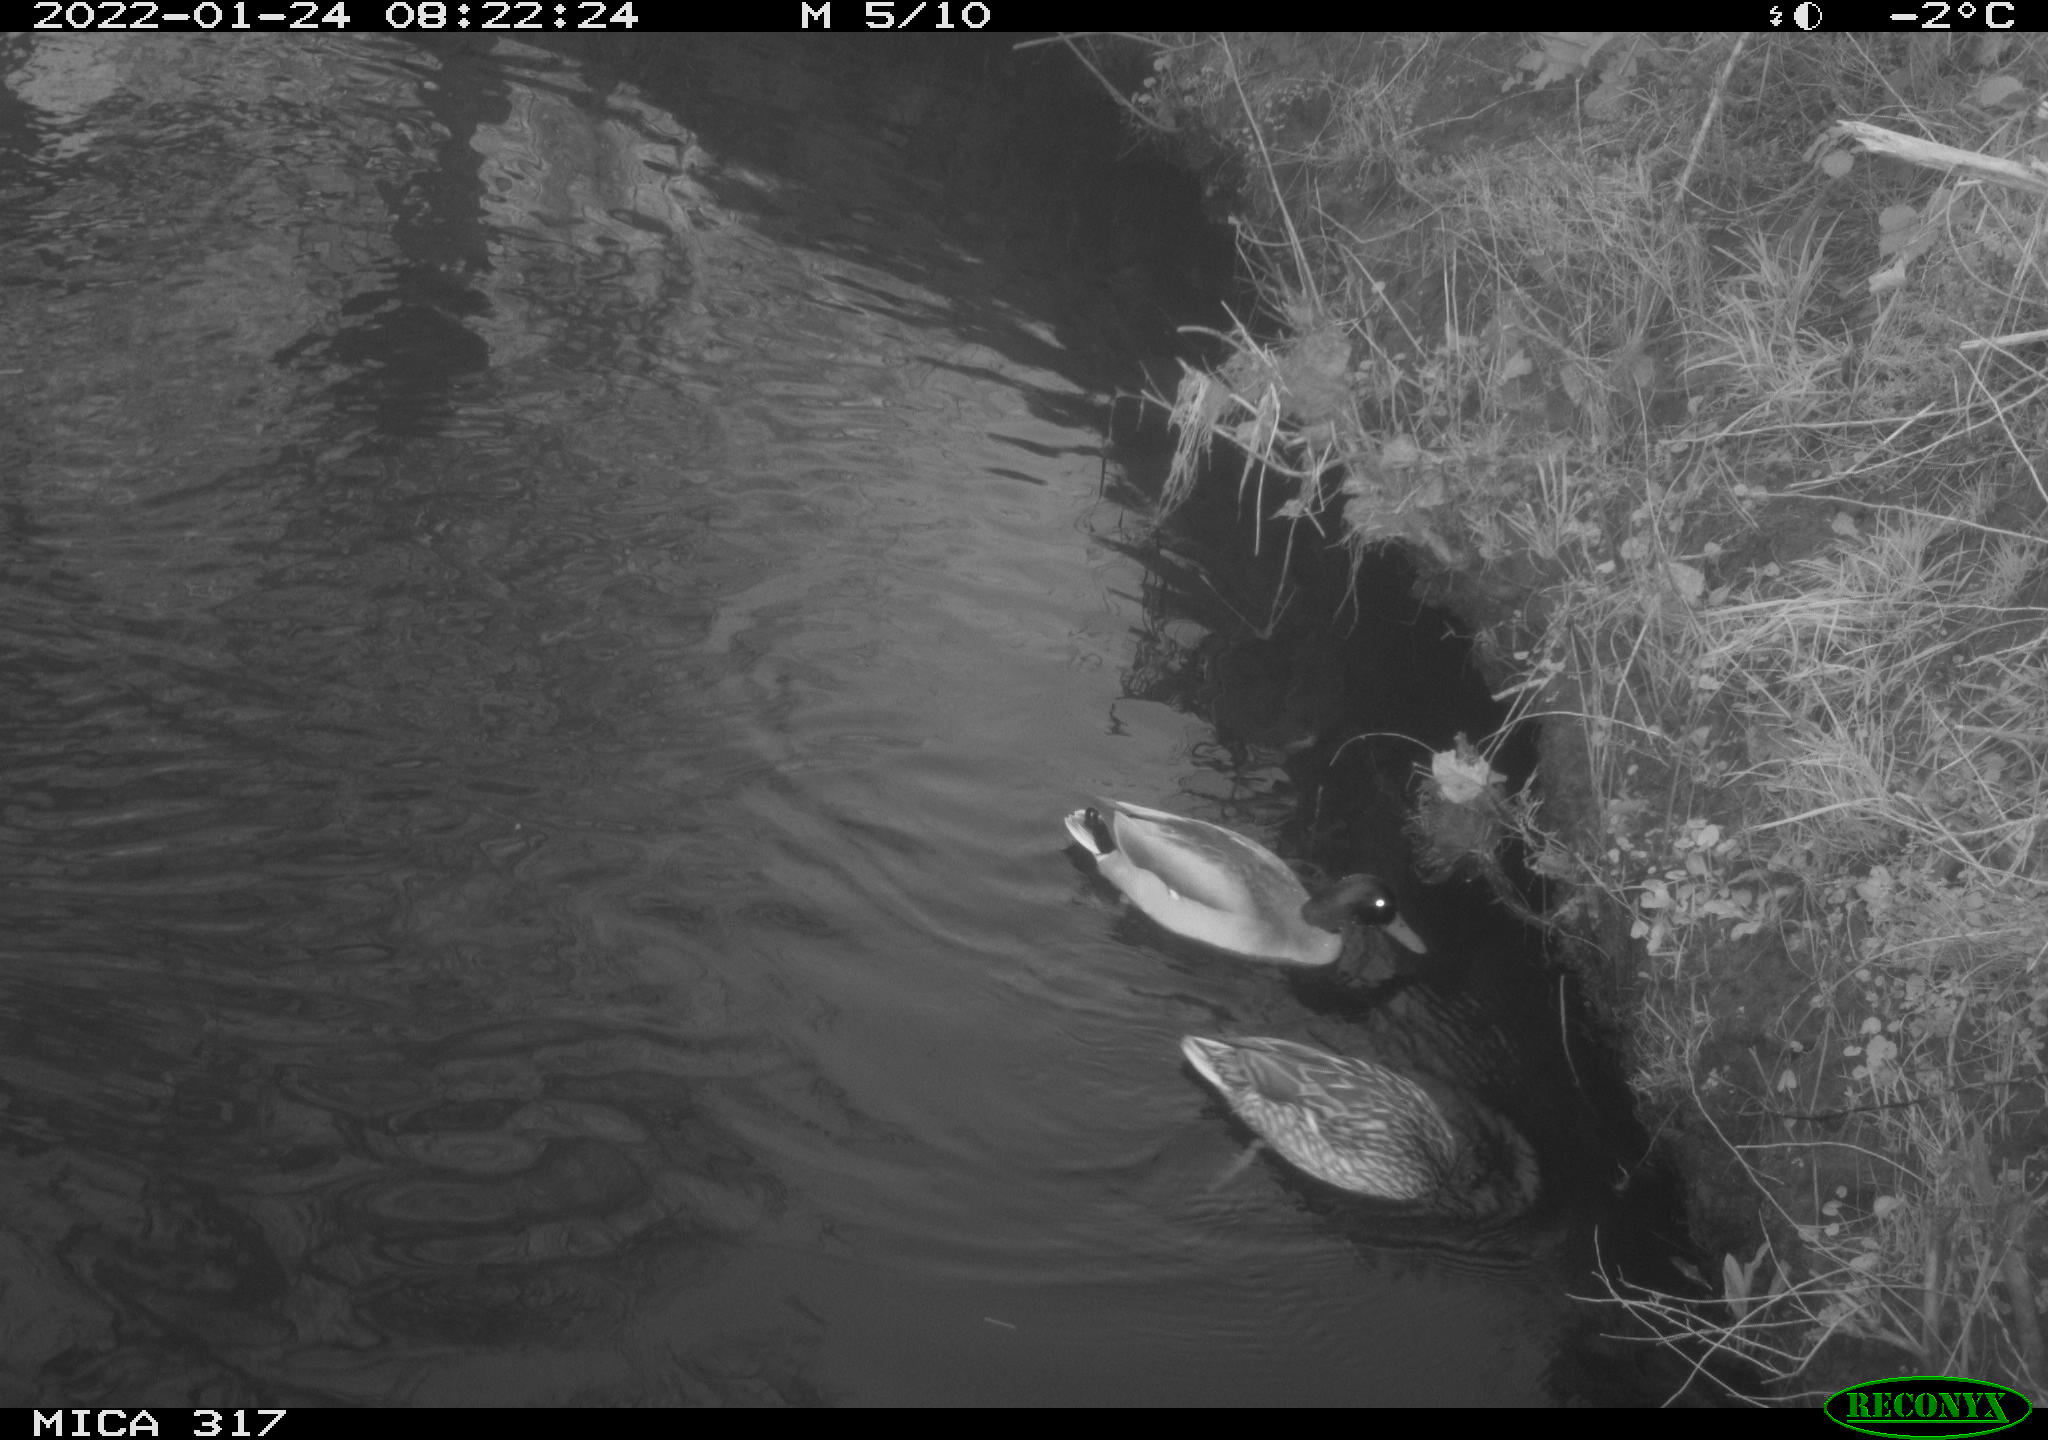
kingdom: Animalia
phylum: Chordata
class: Aves
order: Anseriformes
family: Anatidae
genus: Anas
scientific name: Anas platyrhynchos
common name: Mallard
